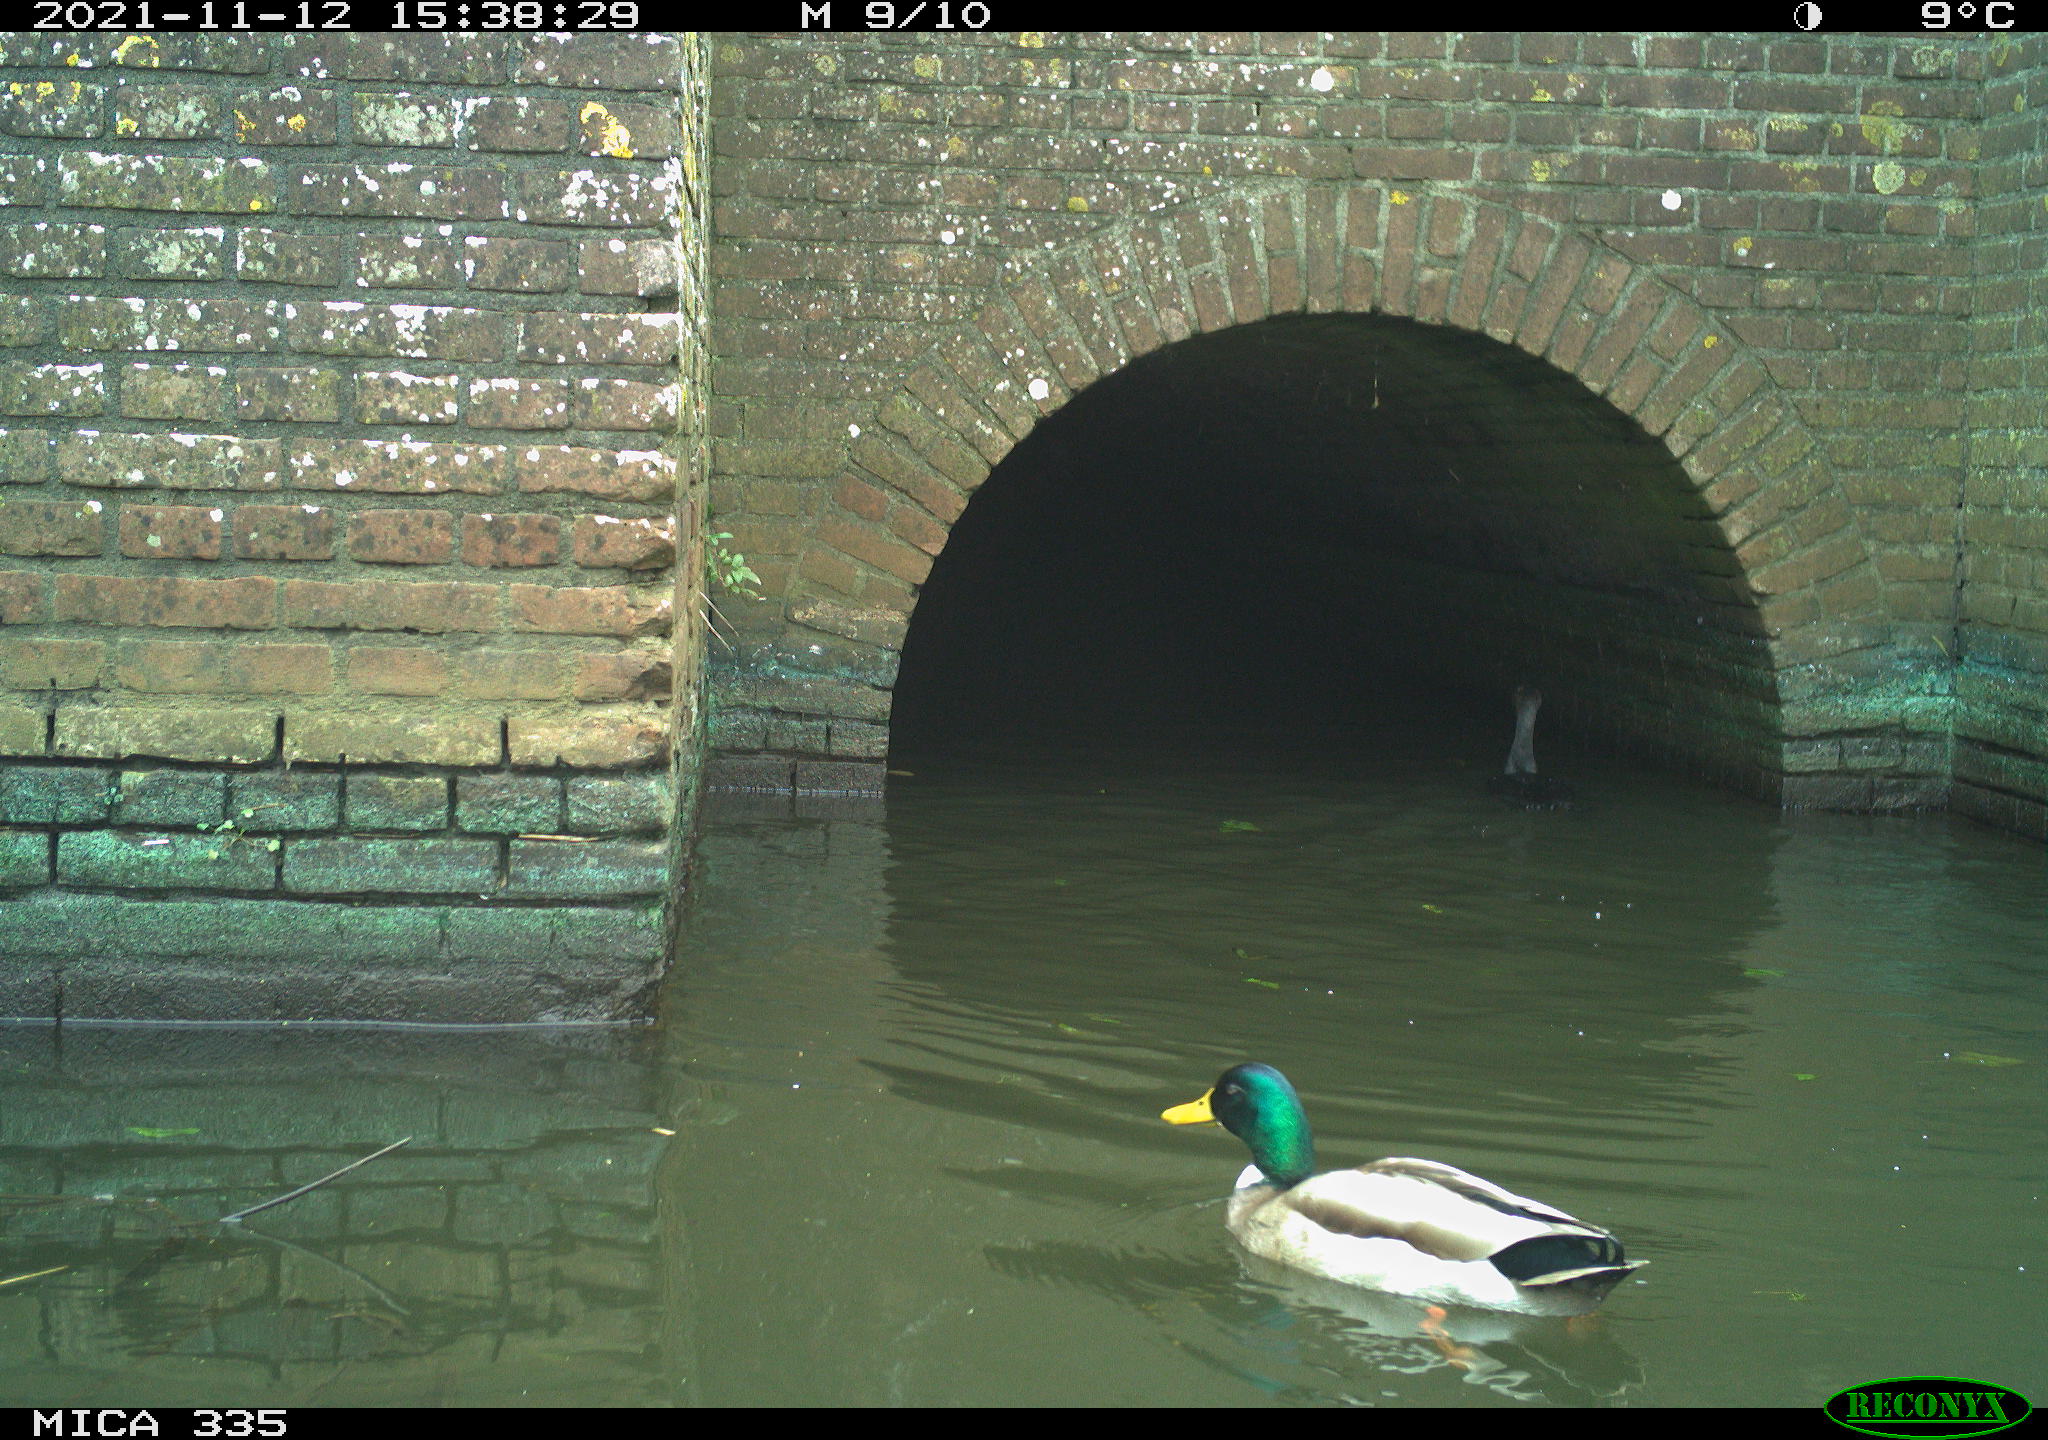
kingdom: Animalia
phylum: Chordata
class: Aves
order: Anseriformes
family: Anatidae
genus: Anas
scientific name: Anas platyrhynchos
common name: Mallard
